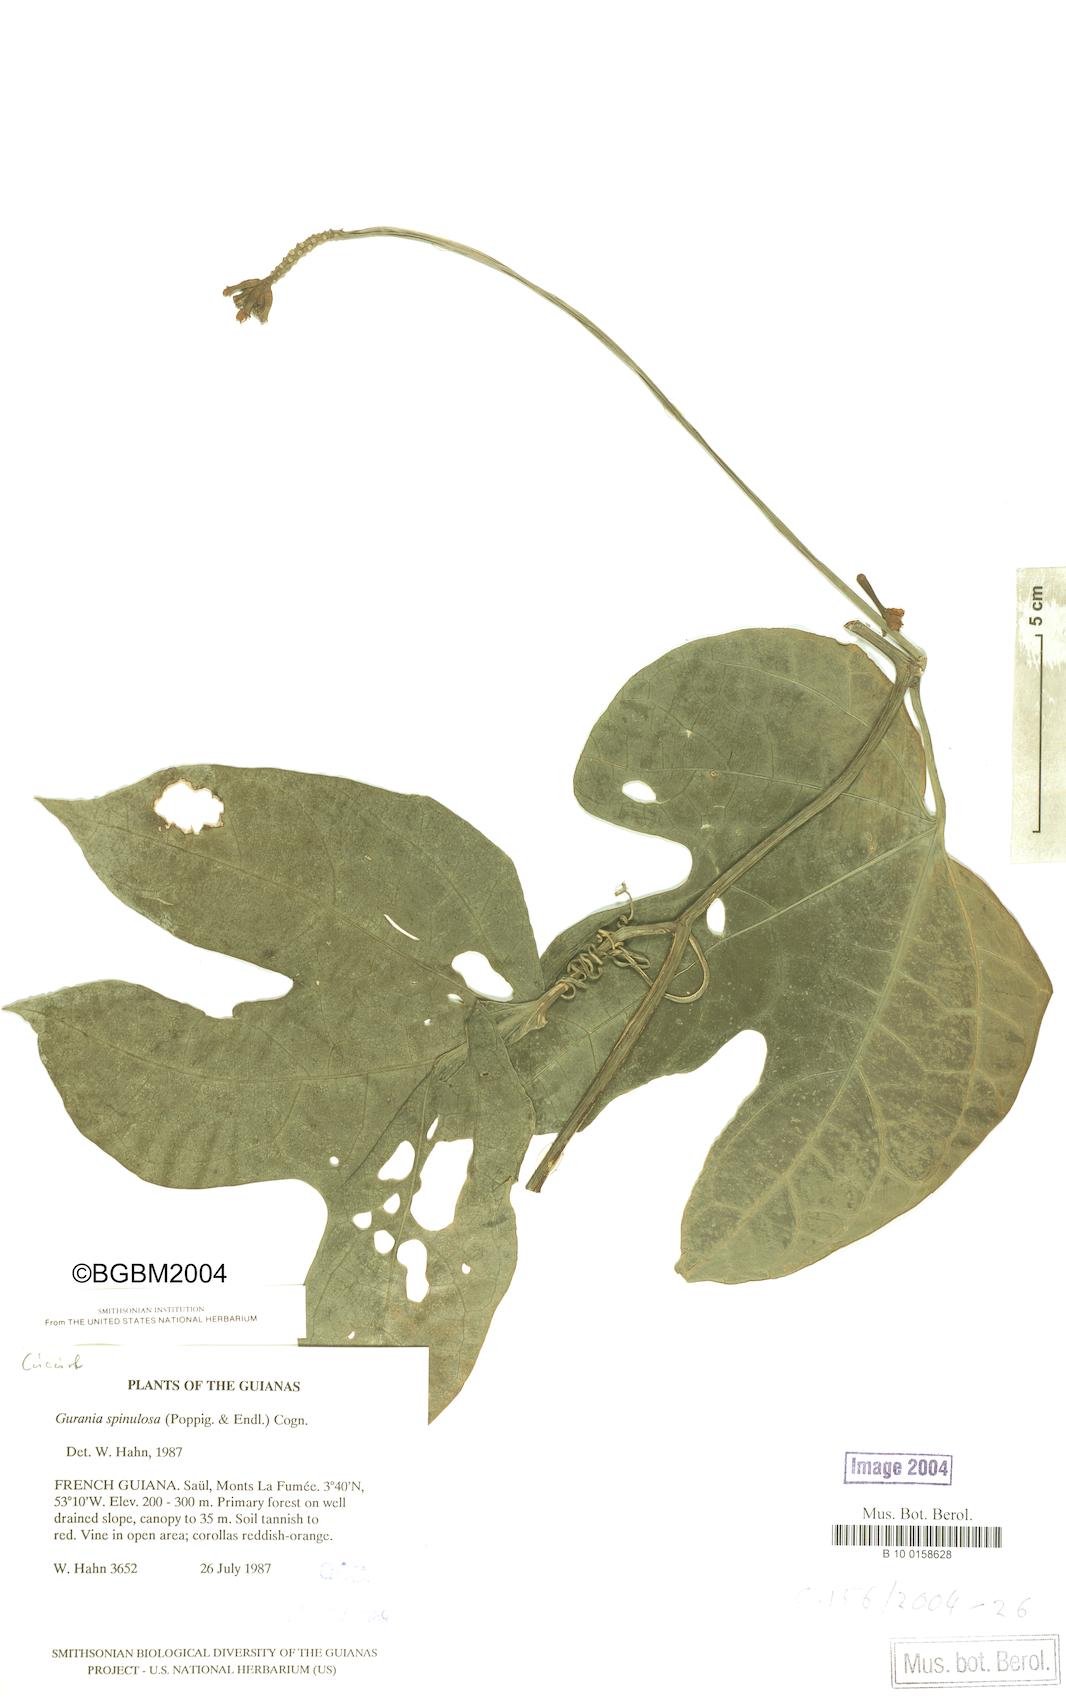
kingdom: Plantae
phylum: Tracheophyta
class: Magnoliopsida
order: Cucurbitales
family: Cucurbitaceae
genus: Psiguria
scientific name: Psiguria
